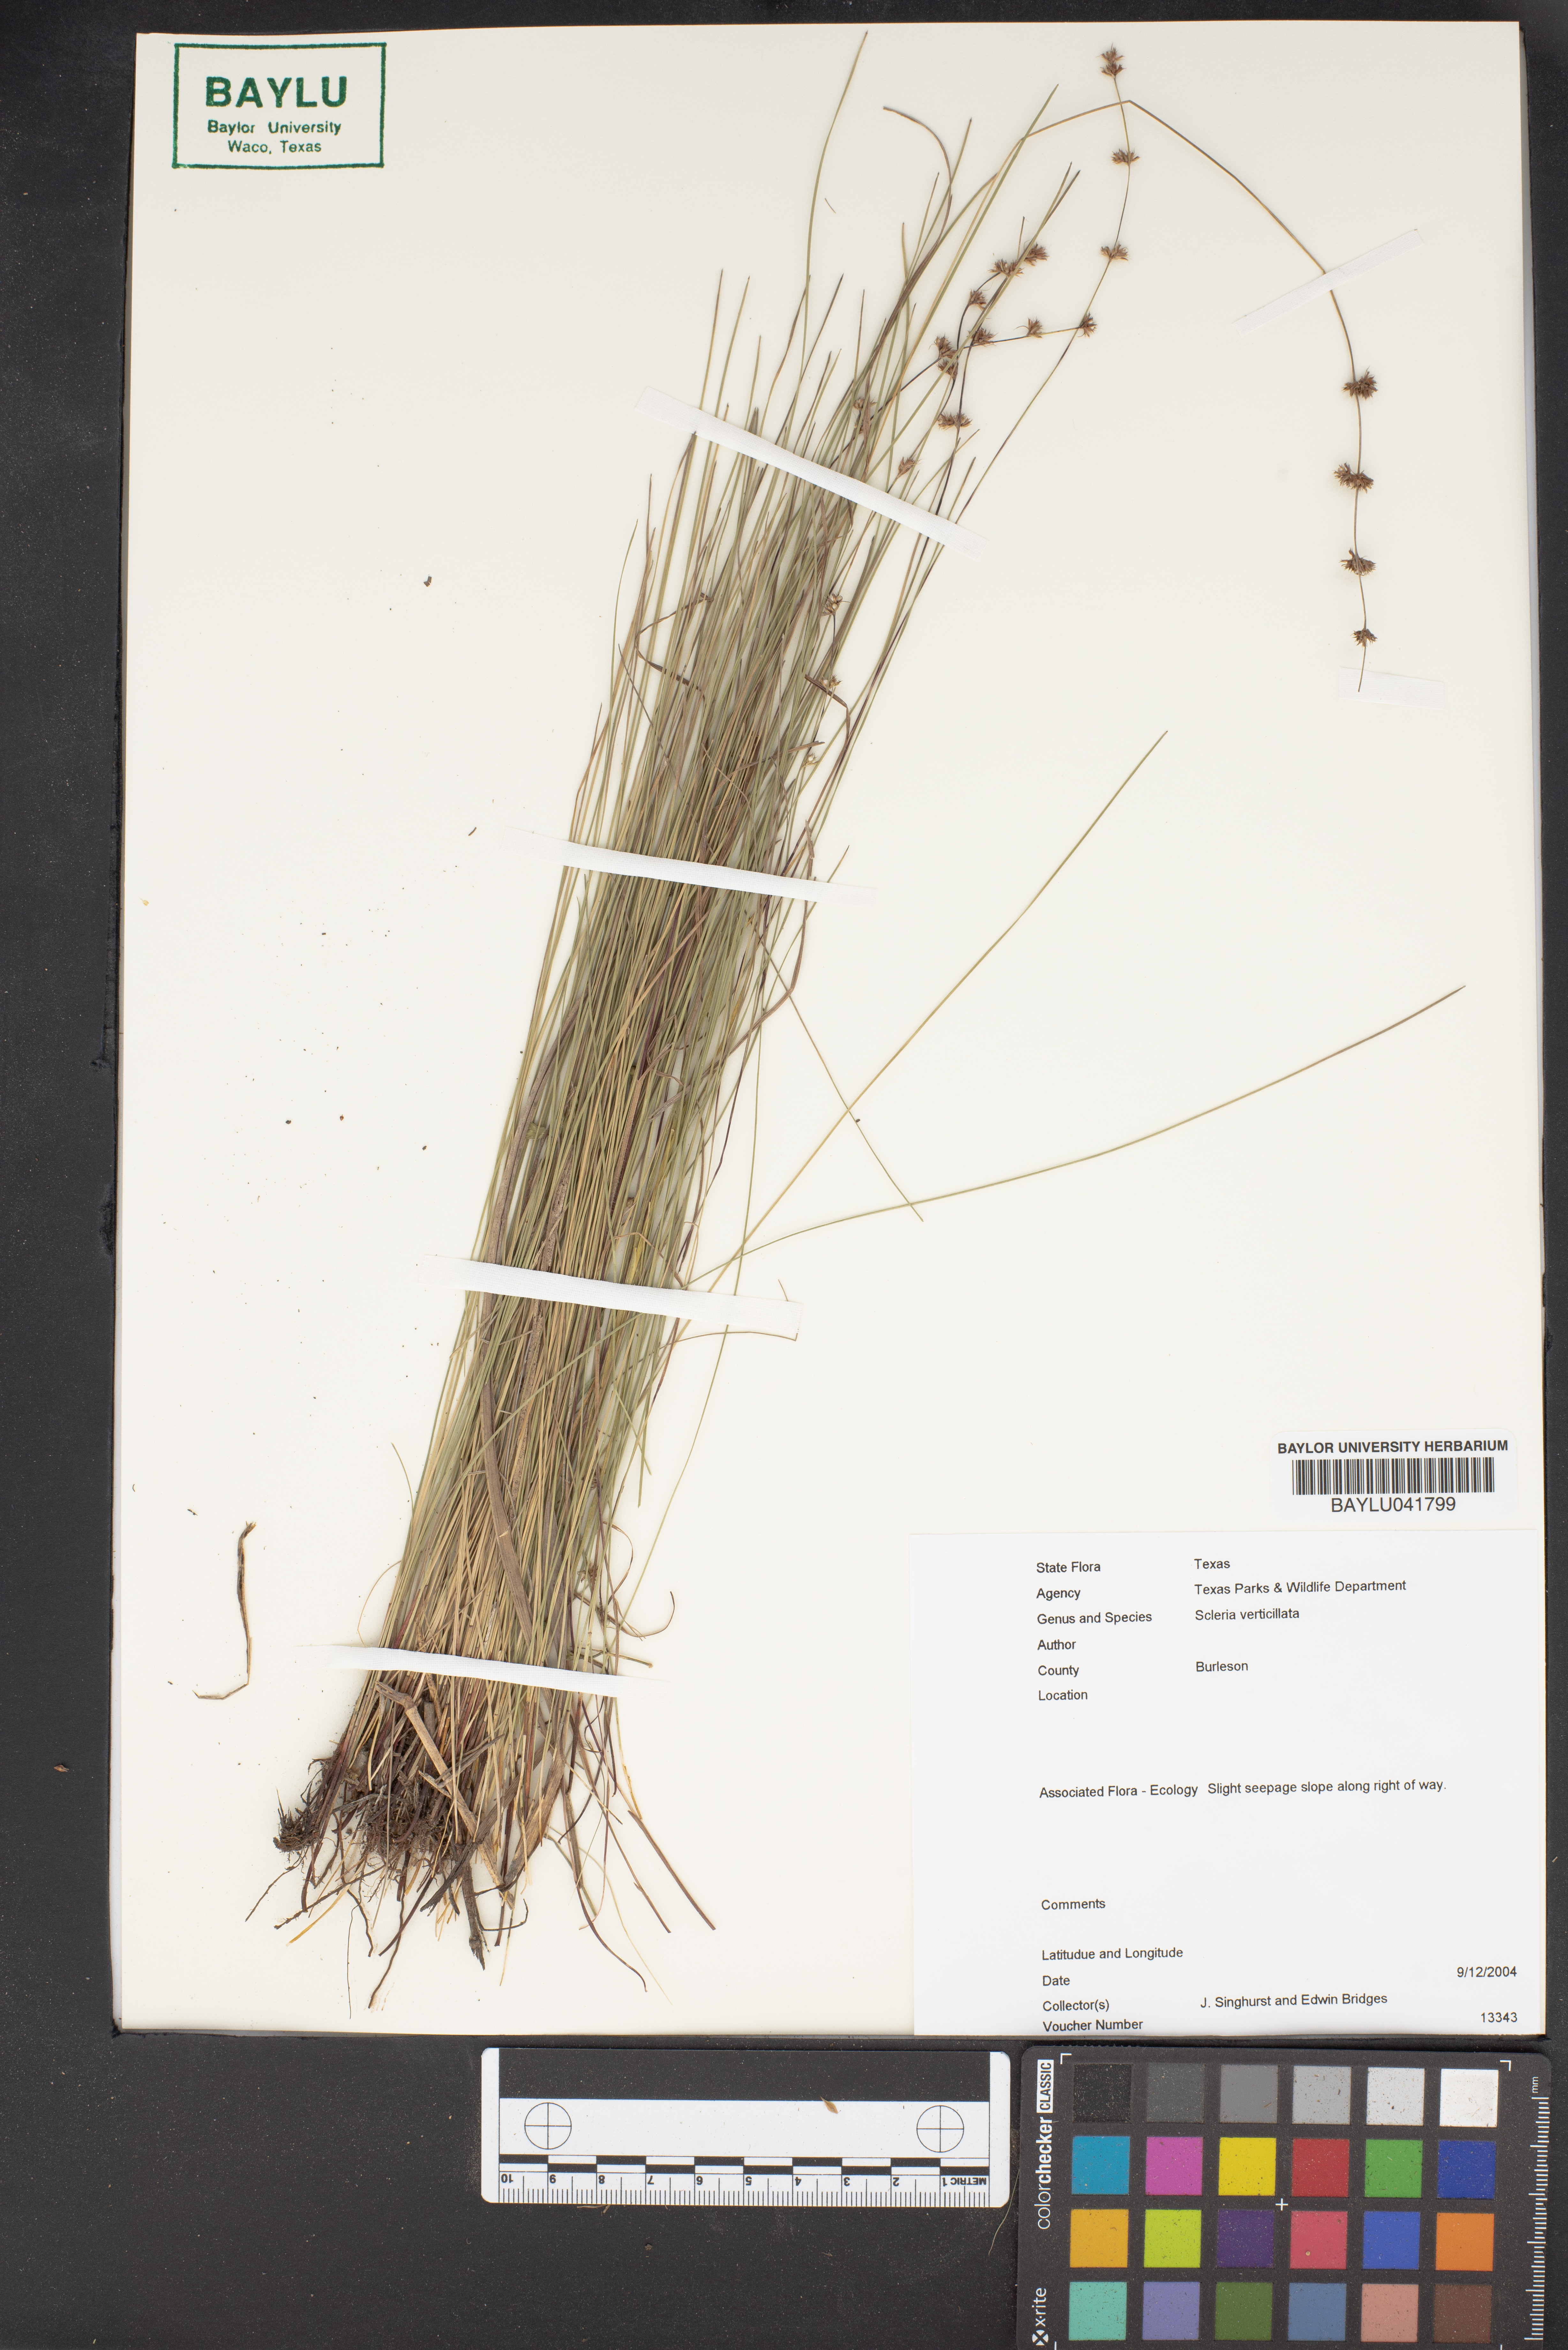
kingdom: Plantae
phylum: Tracheophyta
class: Liliopsida
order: Poales
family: Cyperaceae
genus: Scleria
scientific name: Scleria verticillata
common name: Low nutrush
